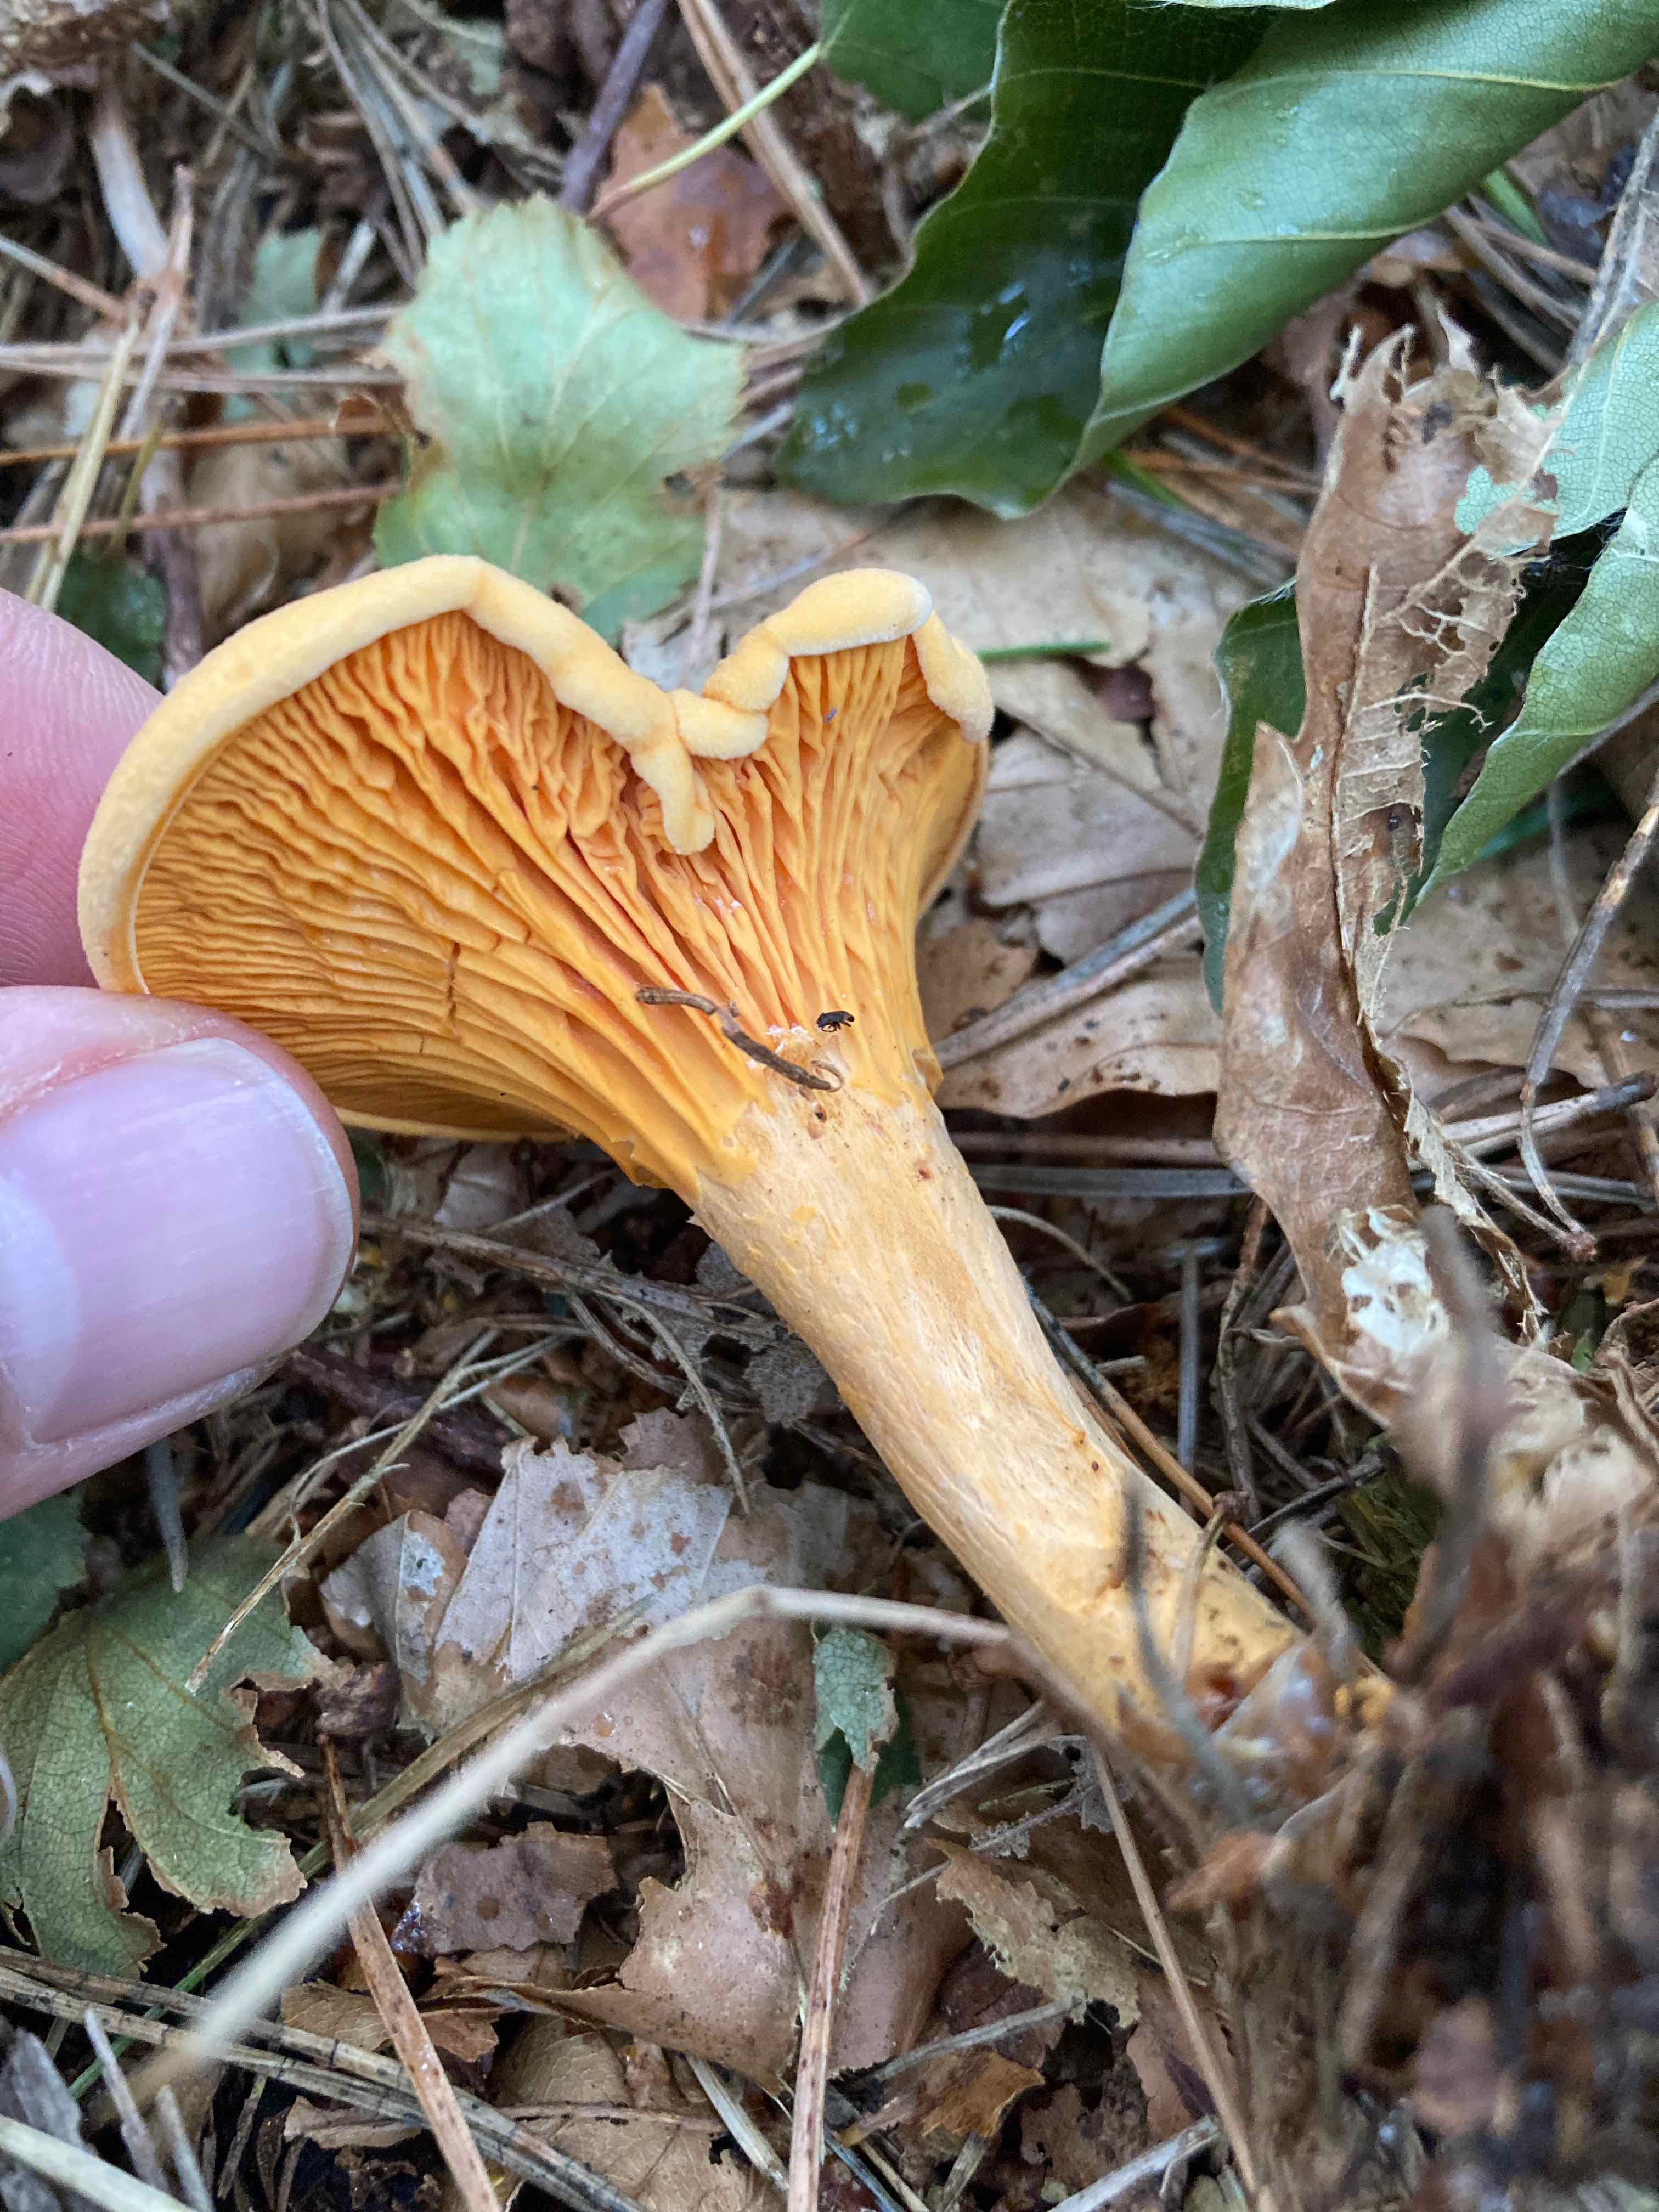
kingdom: Fungi
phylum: Basidiomycota
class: Agaricomycetes
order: Boletales
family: Hygrophoropsidaceae
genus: Hygrophoropsis
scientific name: Hygrophoropsis aurantiaca
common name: almindelig orangekantarel
